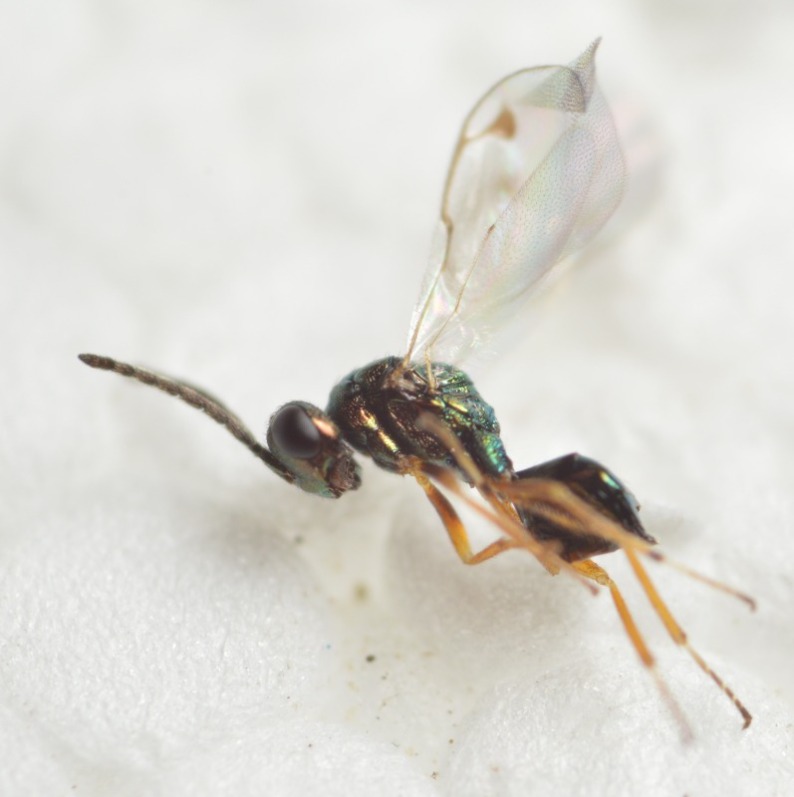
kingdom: Animalia
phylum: Arthropoda
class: Insecta
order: Hymenoptera
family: Pteromalidae
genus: Miscogaster
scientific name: Miscogaster maculata
